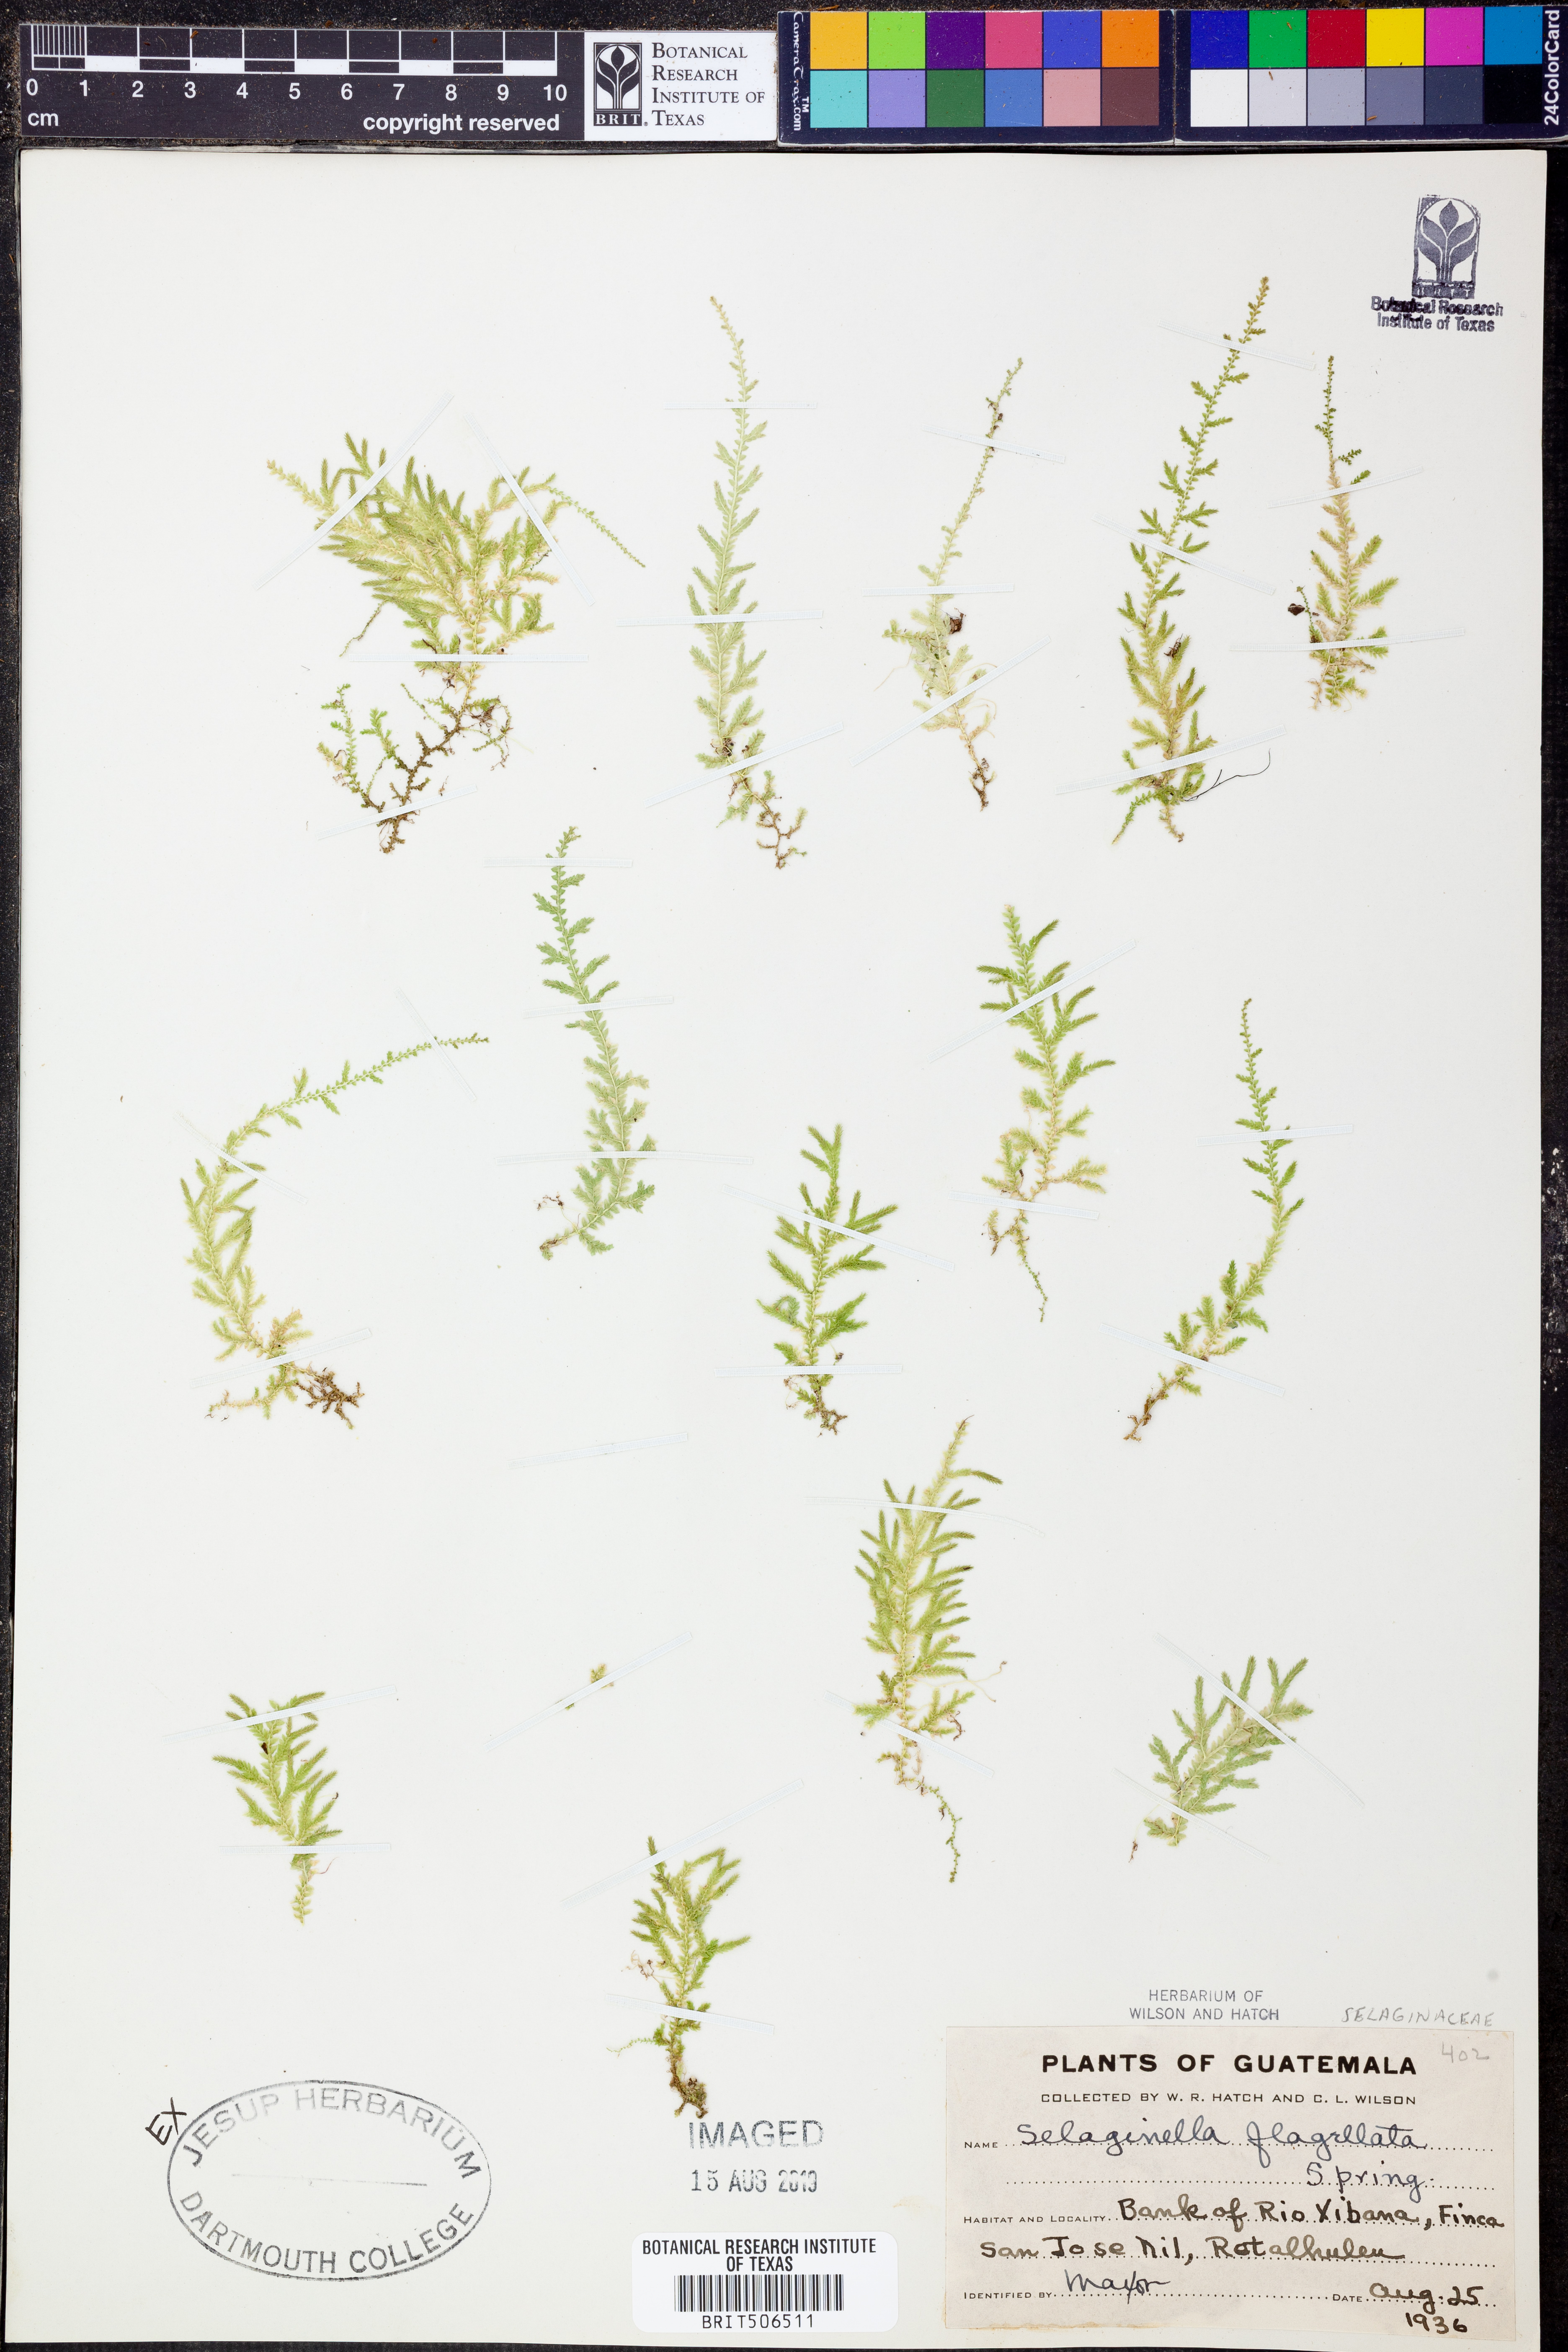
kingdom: Plantae
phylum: Tracheophyta
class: Lycopodiopsida
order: Selaginellales
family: Selaginellaceae
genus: Selaginella
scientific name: Selaginella flagellata
